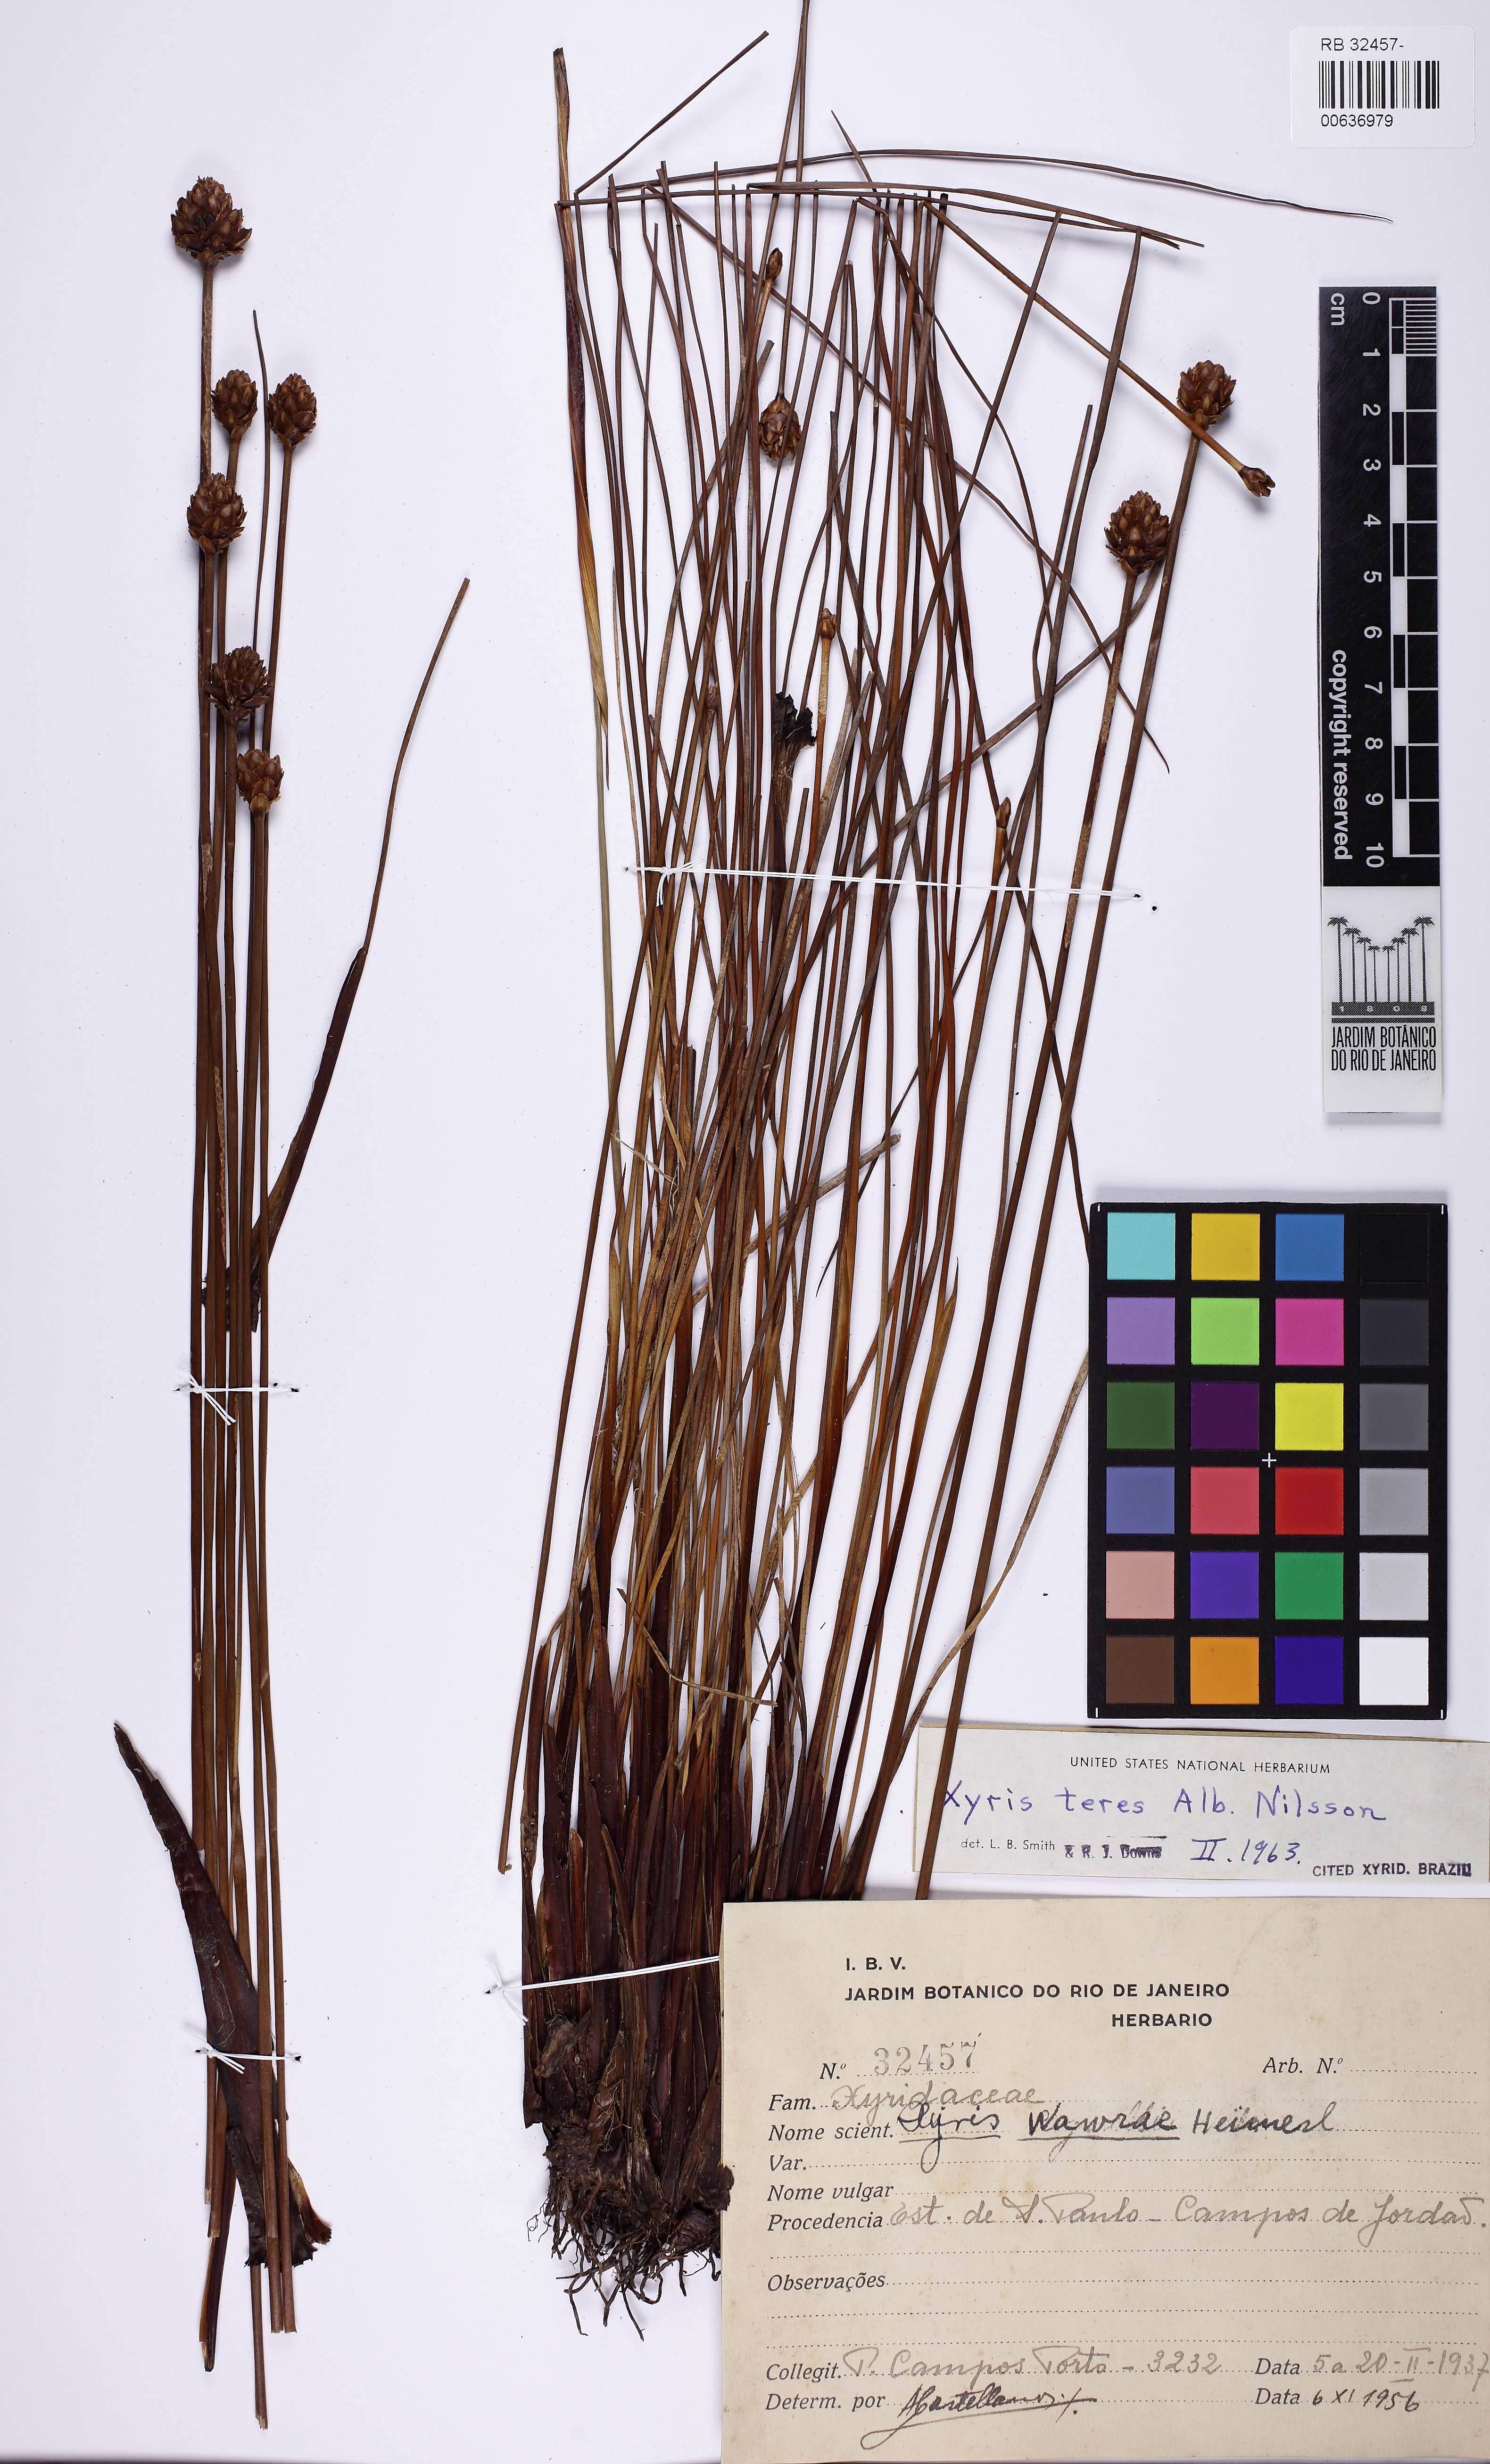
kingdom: Plantae
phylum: Tracheophyta
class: Liliopsida
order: Poales
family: Xyridaceae
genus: Xyris
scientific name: Xyris teres
